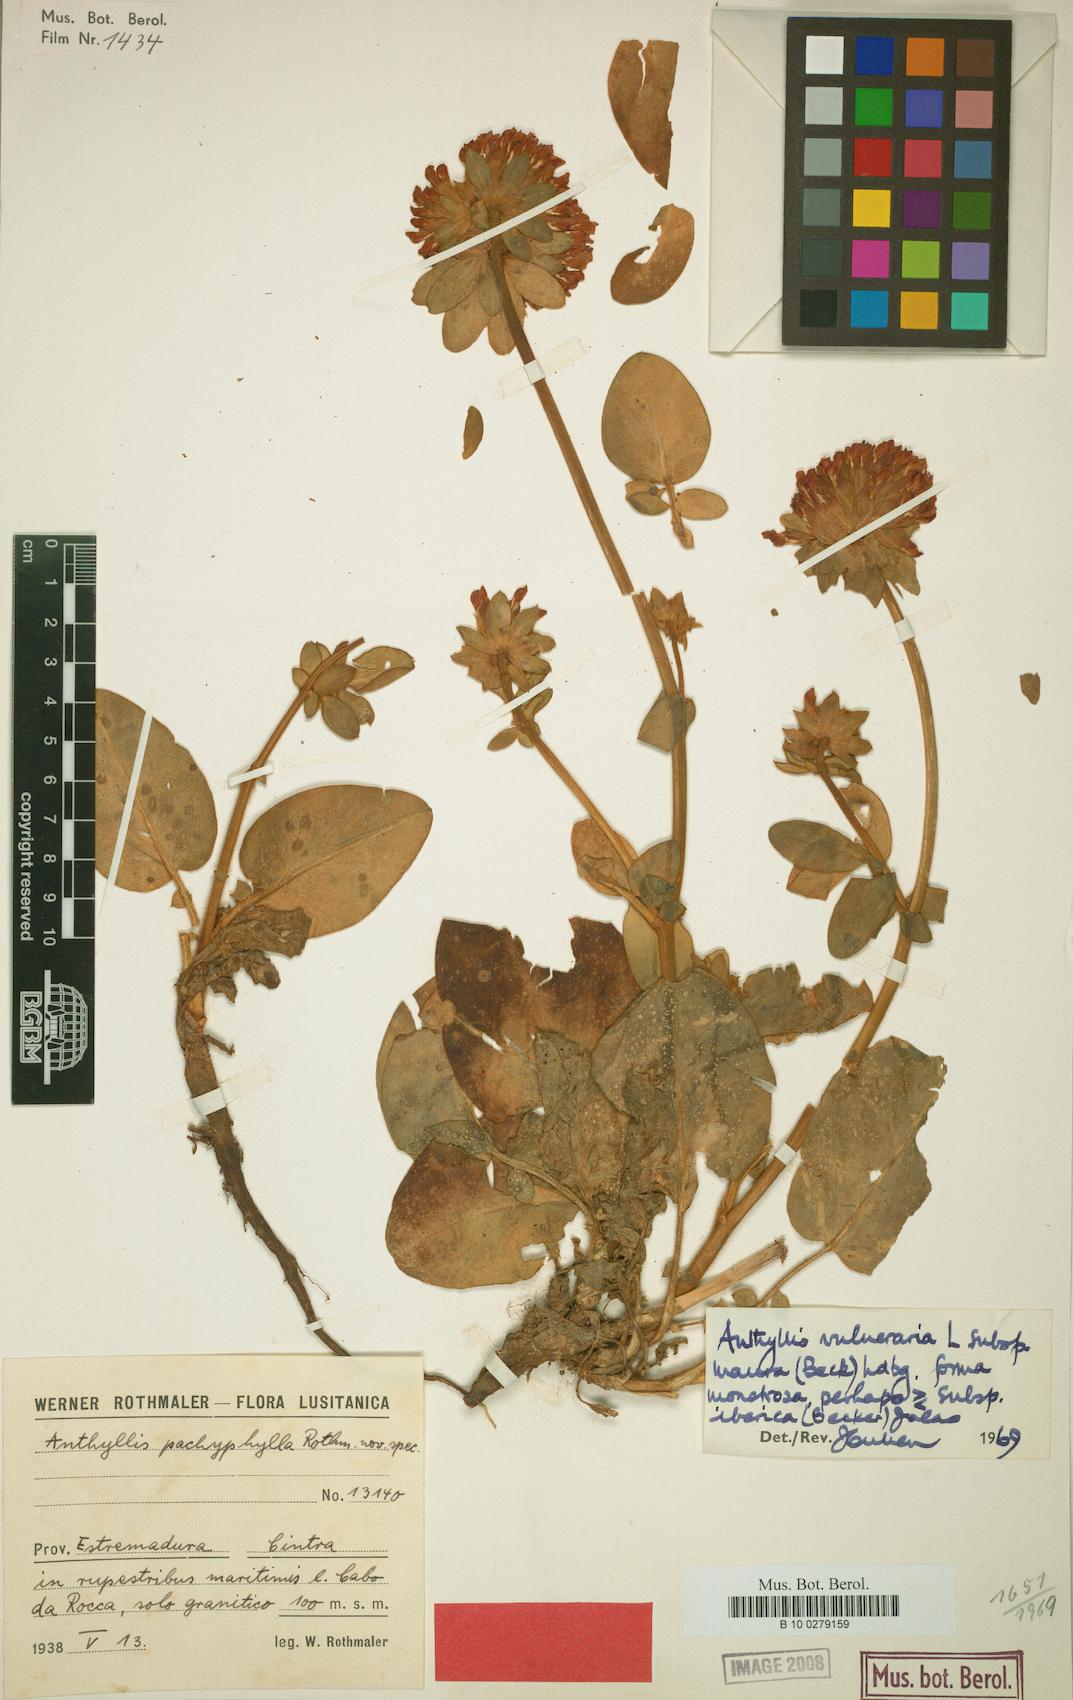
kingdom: Plantae
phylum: Tracheophyta
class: Magnoliopsida
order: Fabales
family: Fabaceae
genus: Anthyllis
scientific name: Anthyllis vulneraria
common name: Kidney vetch
